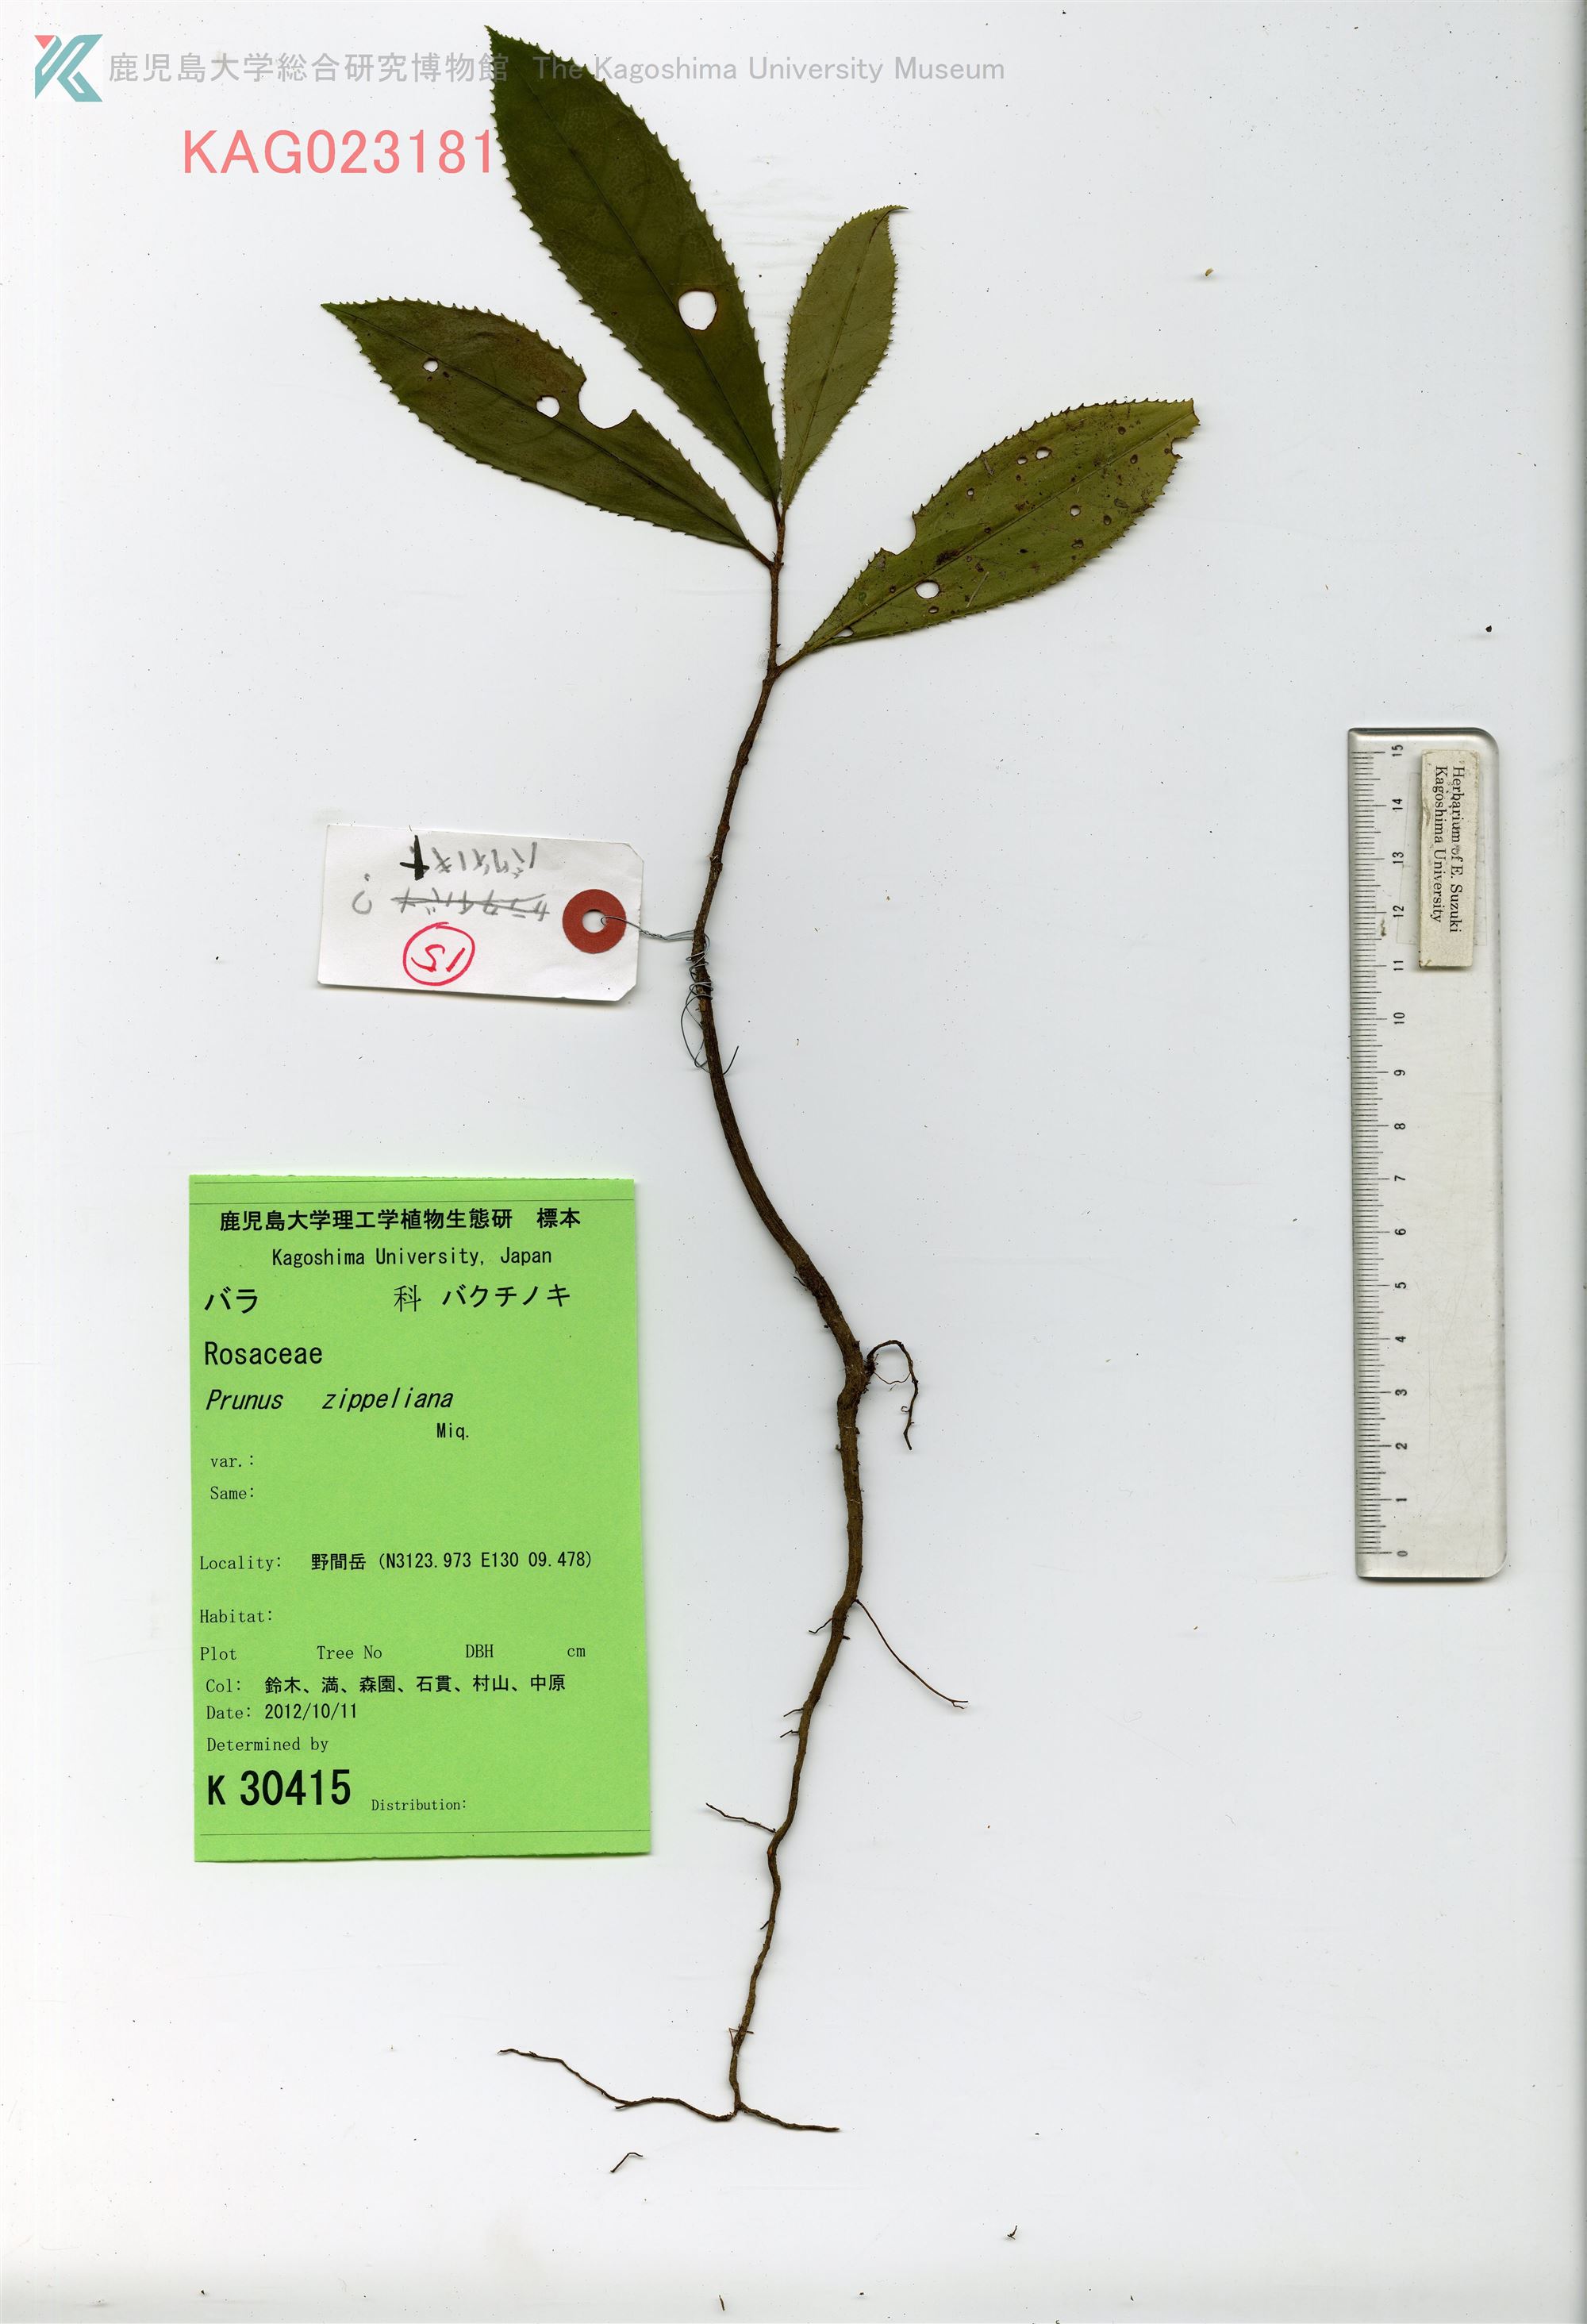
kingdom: Plantae
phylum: Tracheophyta
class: Magnoliopsida
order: Rosales
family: Rosaceae
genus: Prunus
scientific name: Prunus zippeliana
